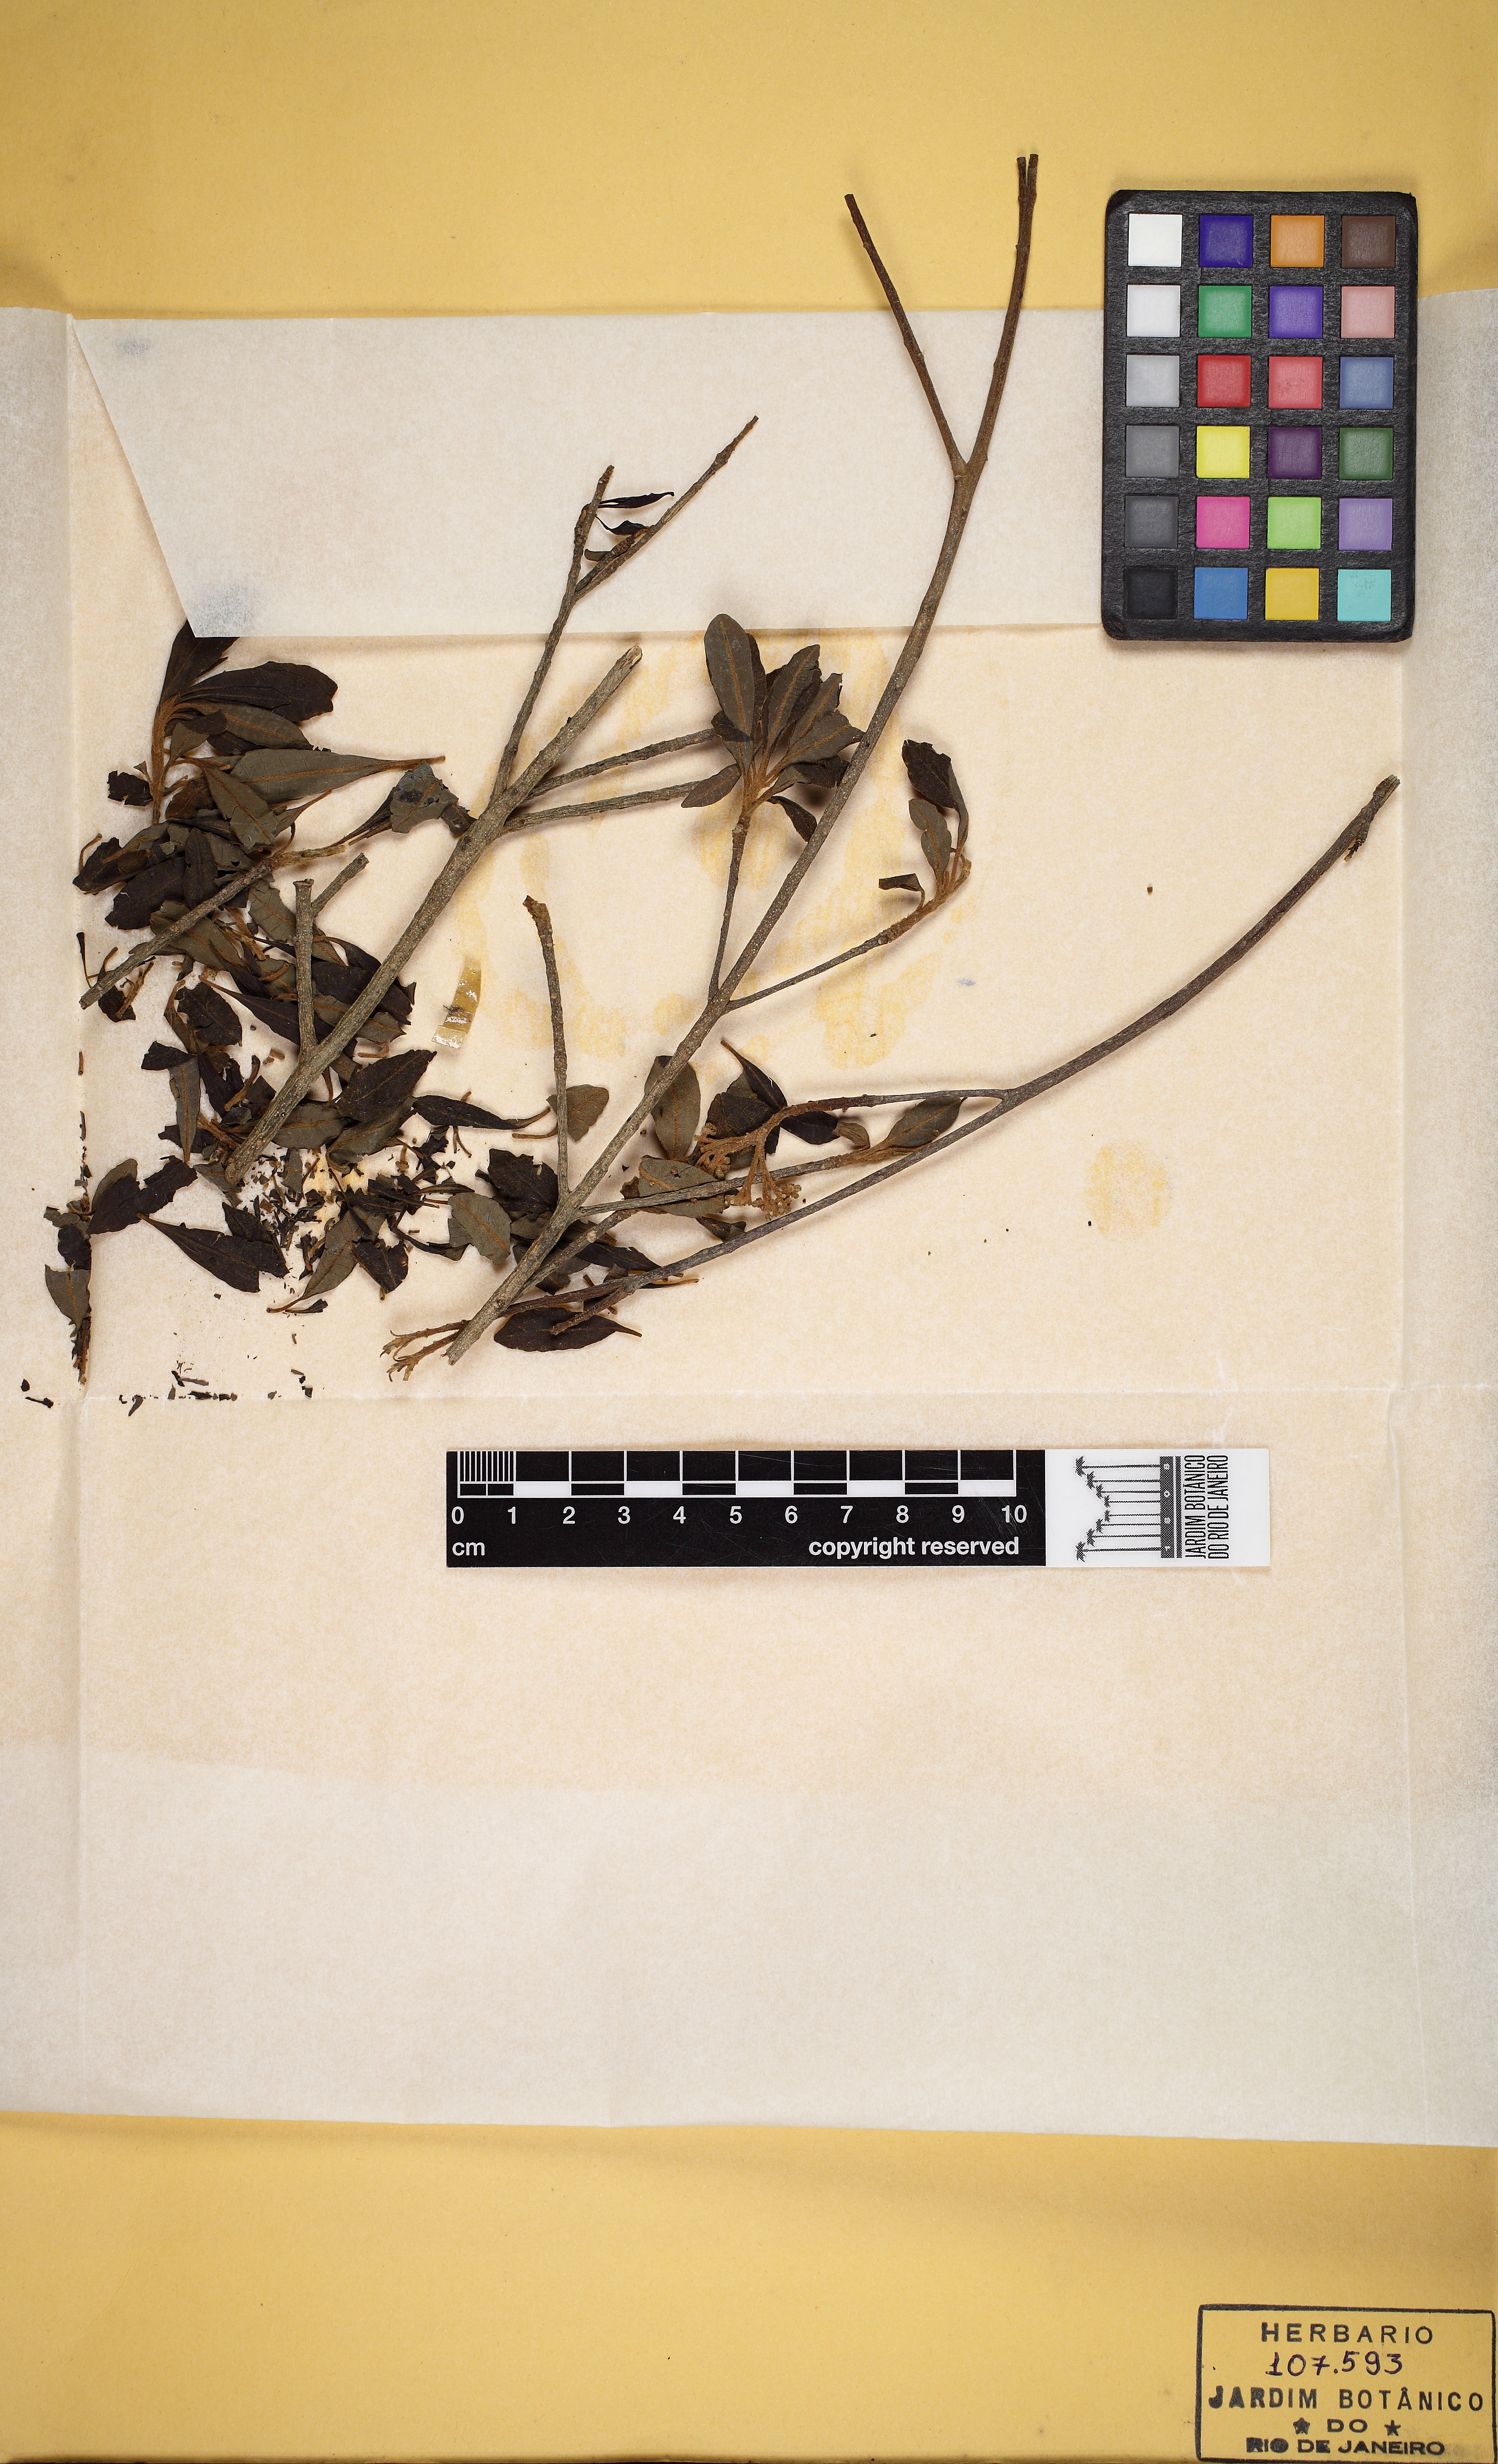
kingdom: Plantae
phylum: Tracheophyta
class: Magnoliopsida
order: Gentianales
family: Apocynaceae
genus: Aspidosperma
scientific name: Aspidosperma parvifolium
